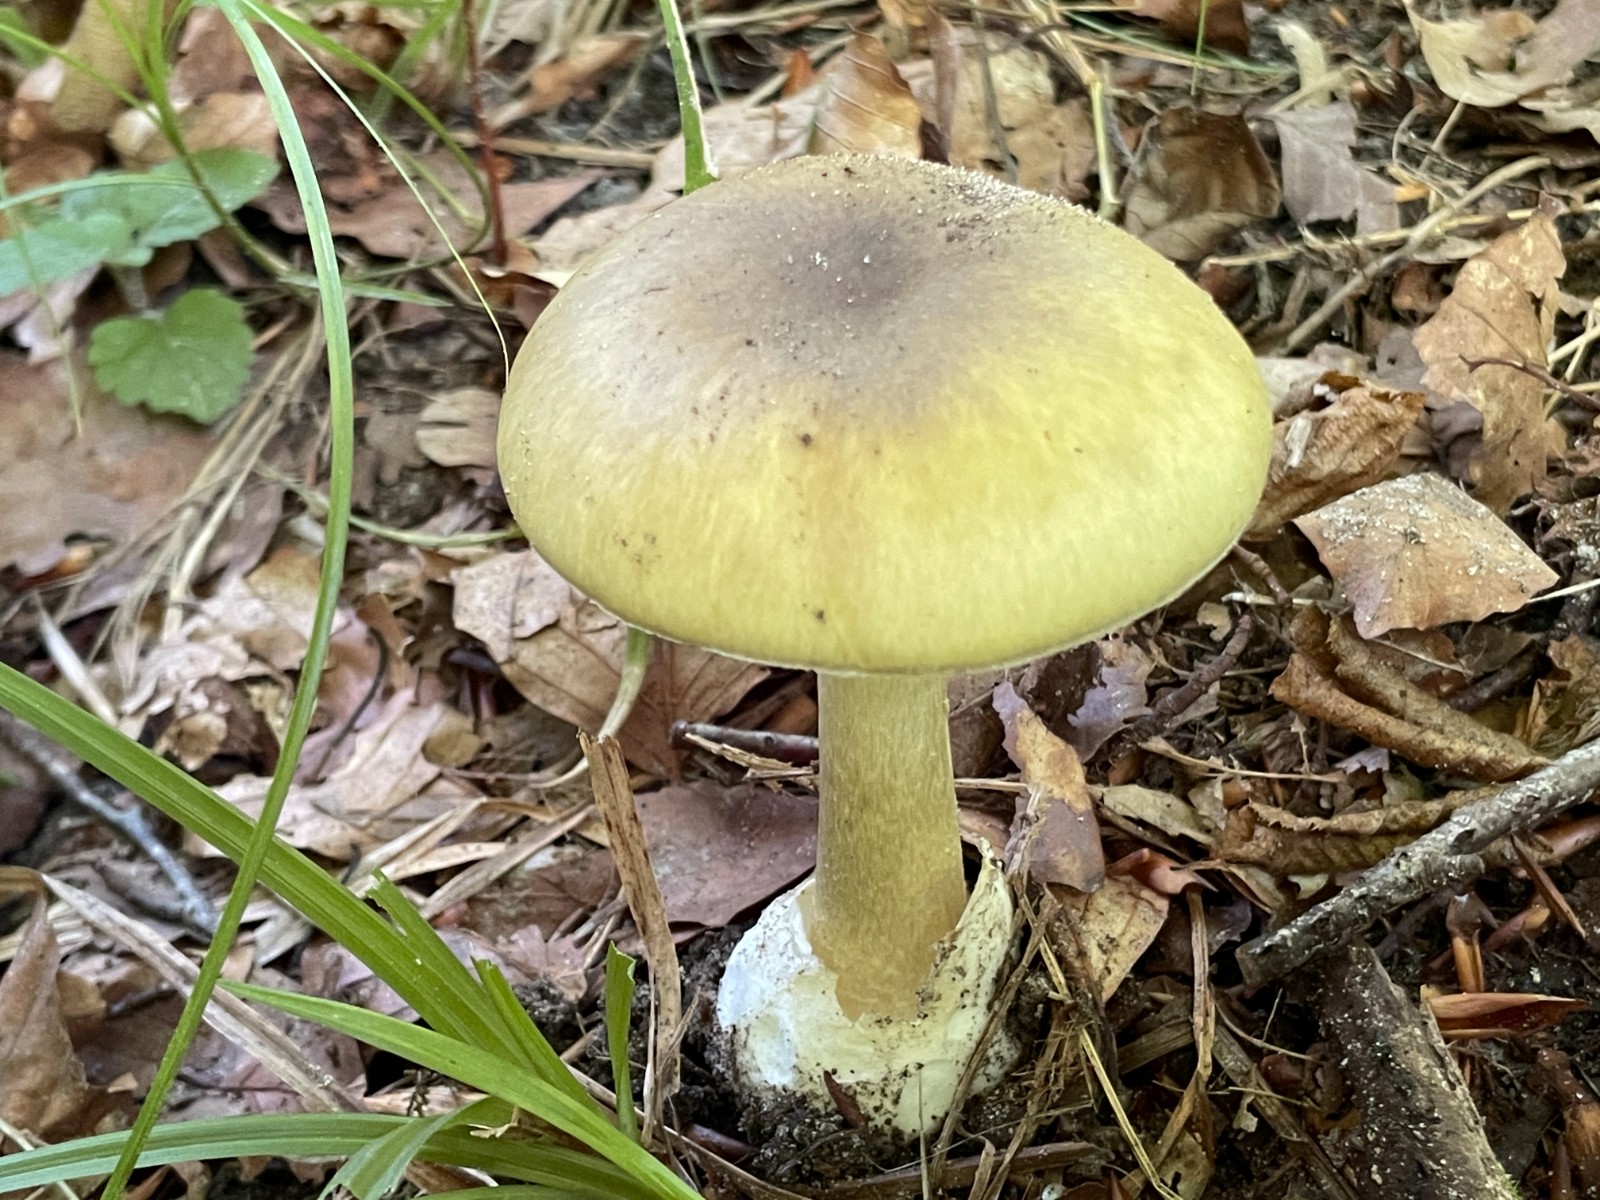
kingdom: Fungi
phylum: Basidiomycota
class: Agaricomycetes
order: Agaricales
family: Amanitaceae
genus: Amanita
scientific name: Amanita phalloides
